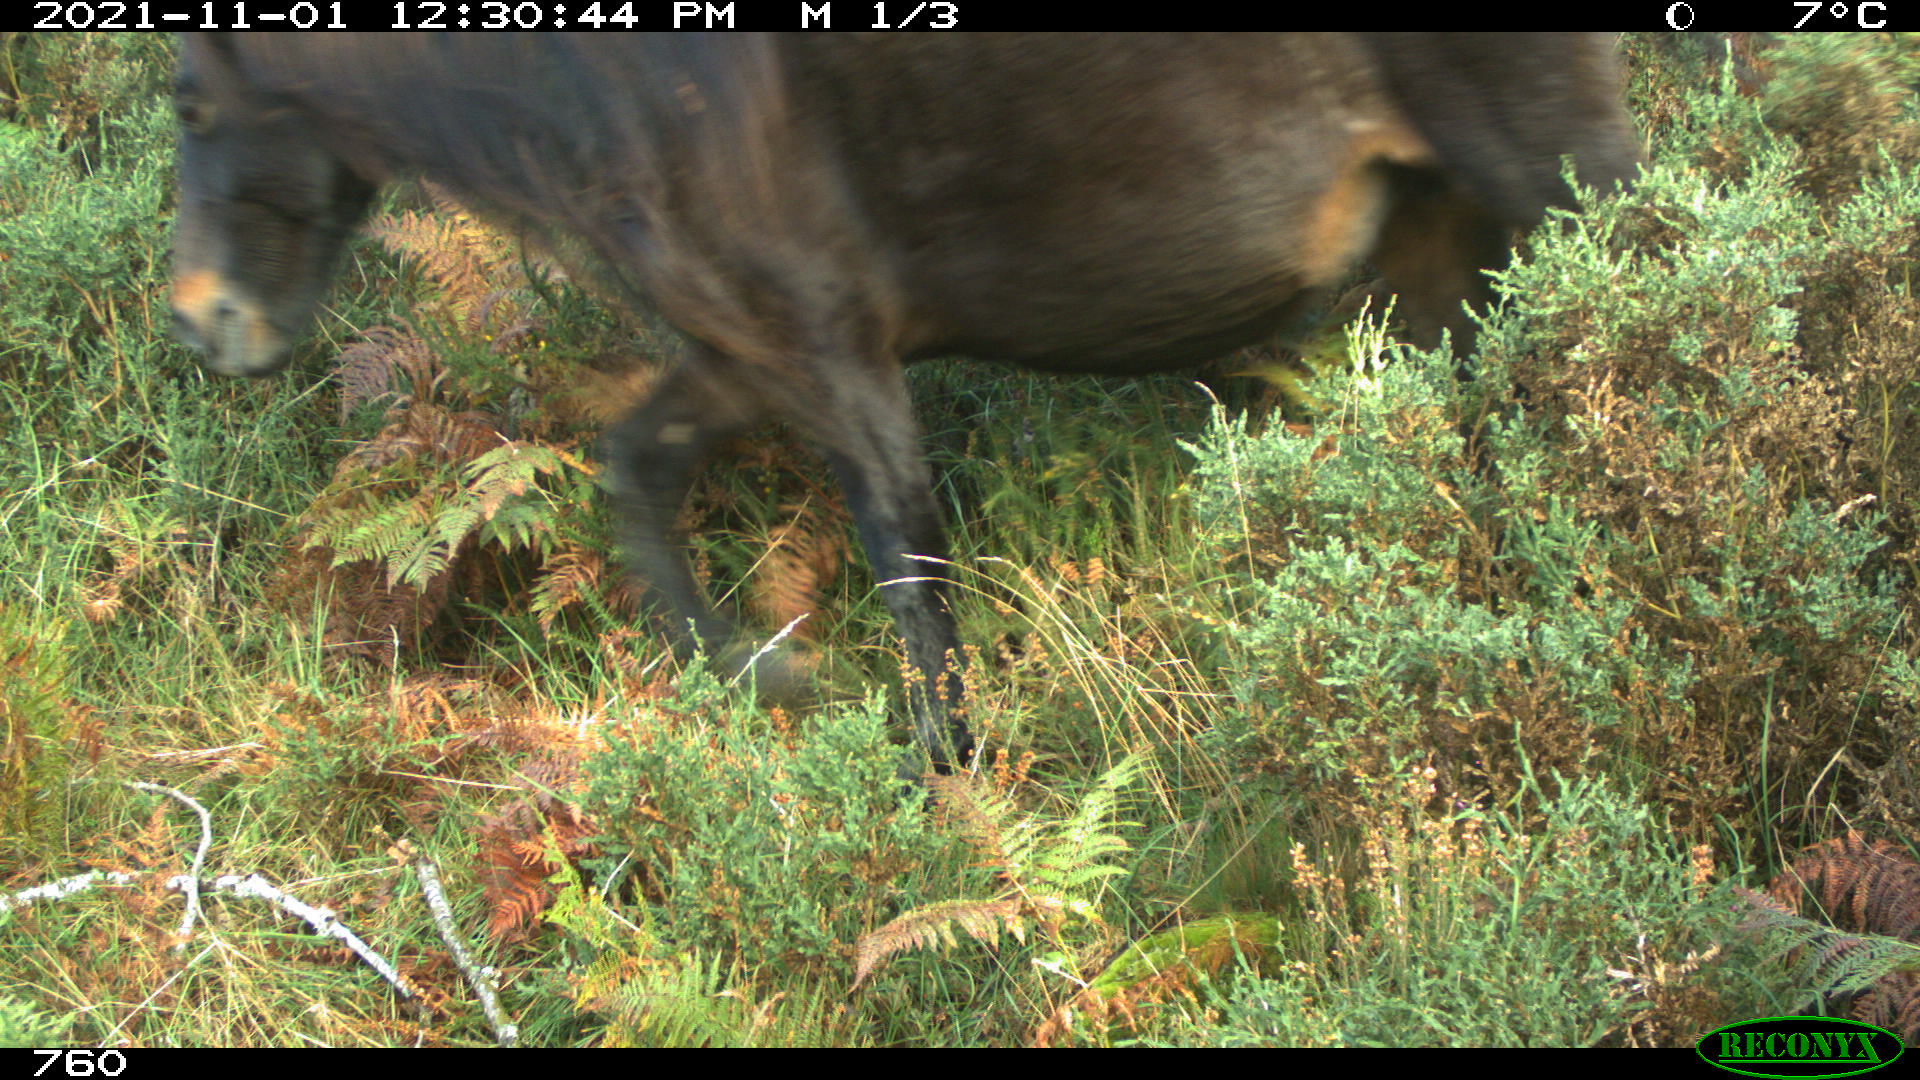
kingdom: Animalia
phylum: Chordata
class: Mammalia
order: Perissodactyla
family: Equidae
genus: Equus
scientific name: Equus caballus
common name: Horse
